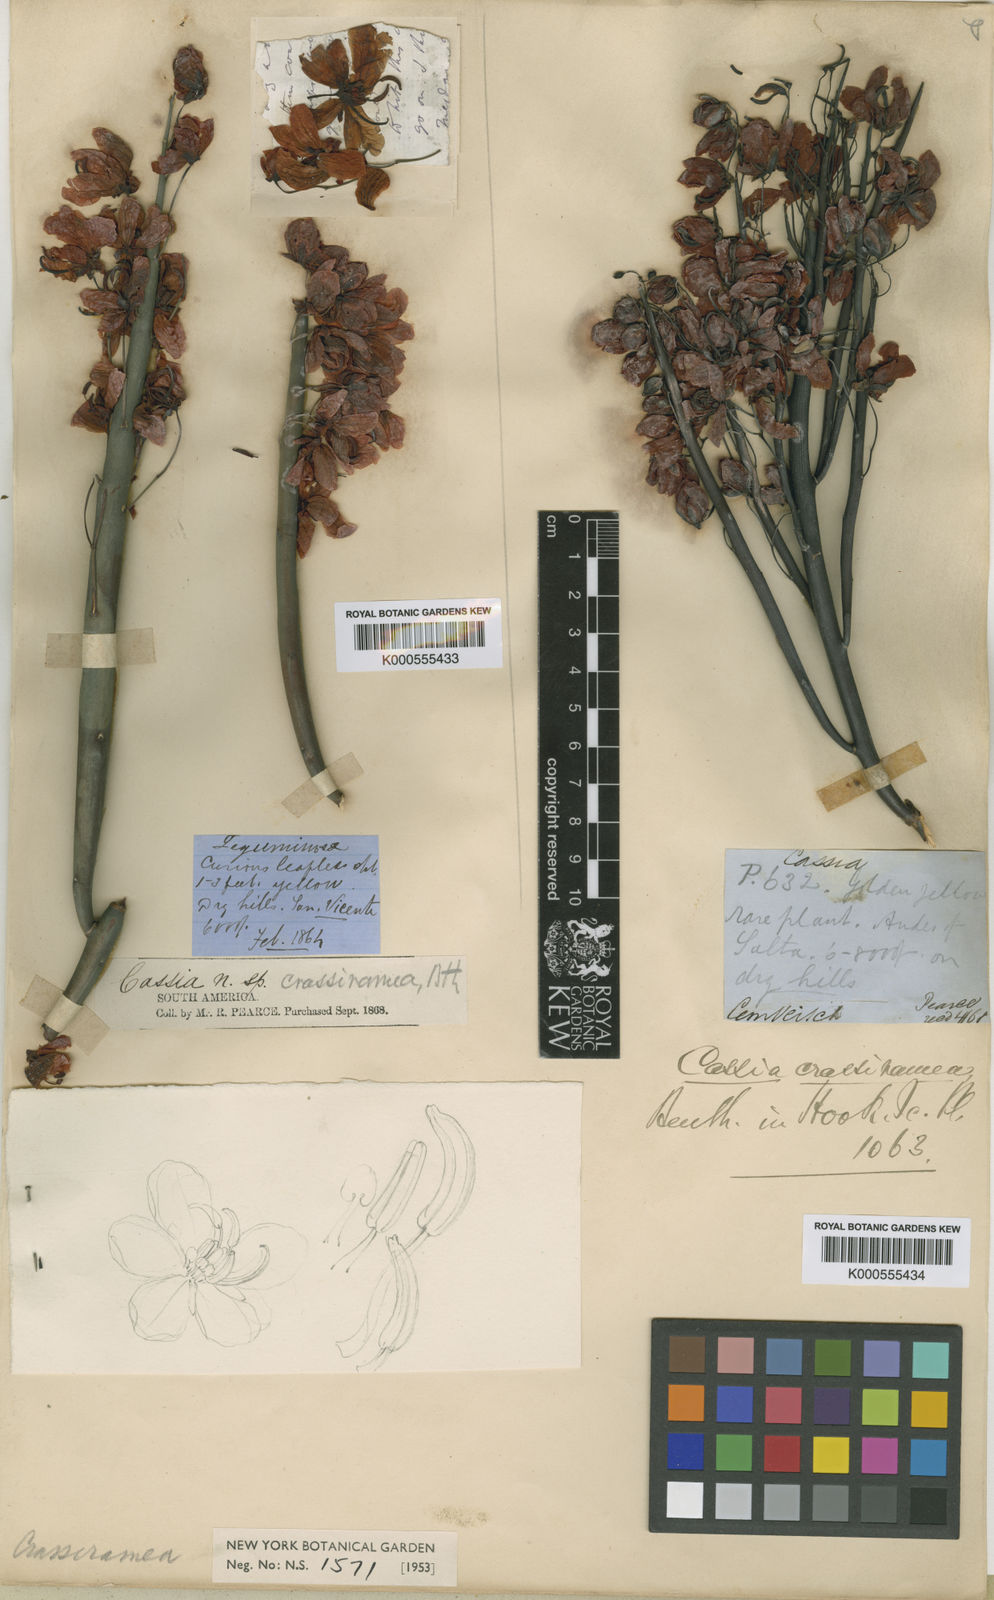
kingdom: Plantae
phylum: Tracheophyta
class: Magnoliopsida
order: Fabales
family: Fabaceae
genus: Senna
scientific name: Senna crassiramea
